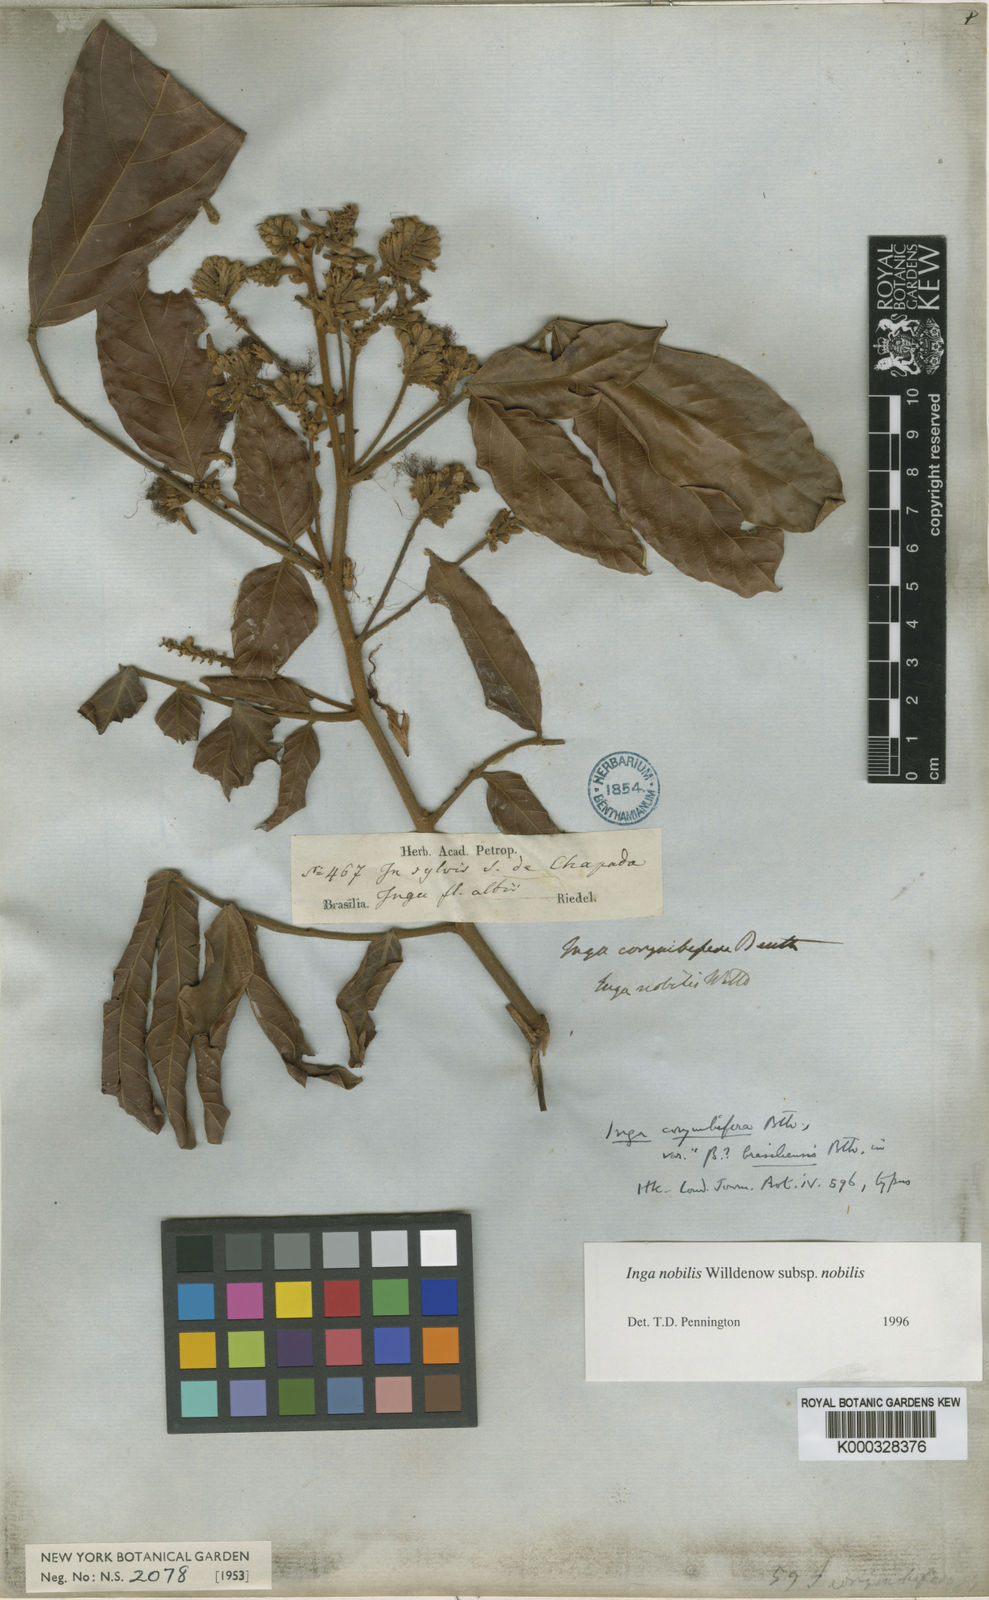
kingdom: Plantae
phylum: Tracheophyta
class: Magnoliopsida
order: Fabales
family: Fabaceae
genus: Inga
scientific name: Inga nobilis
